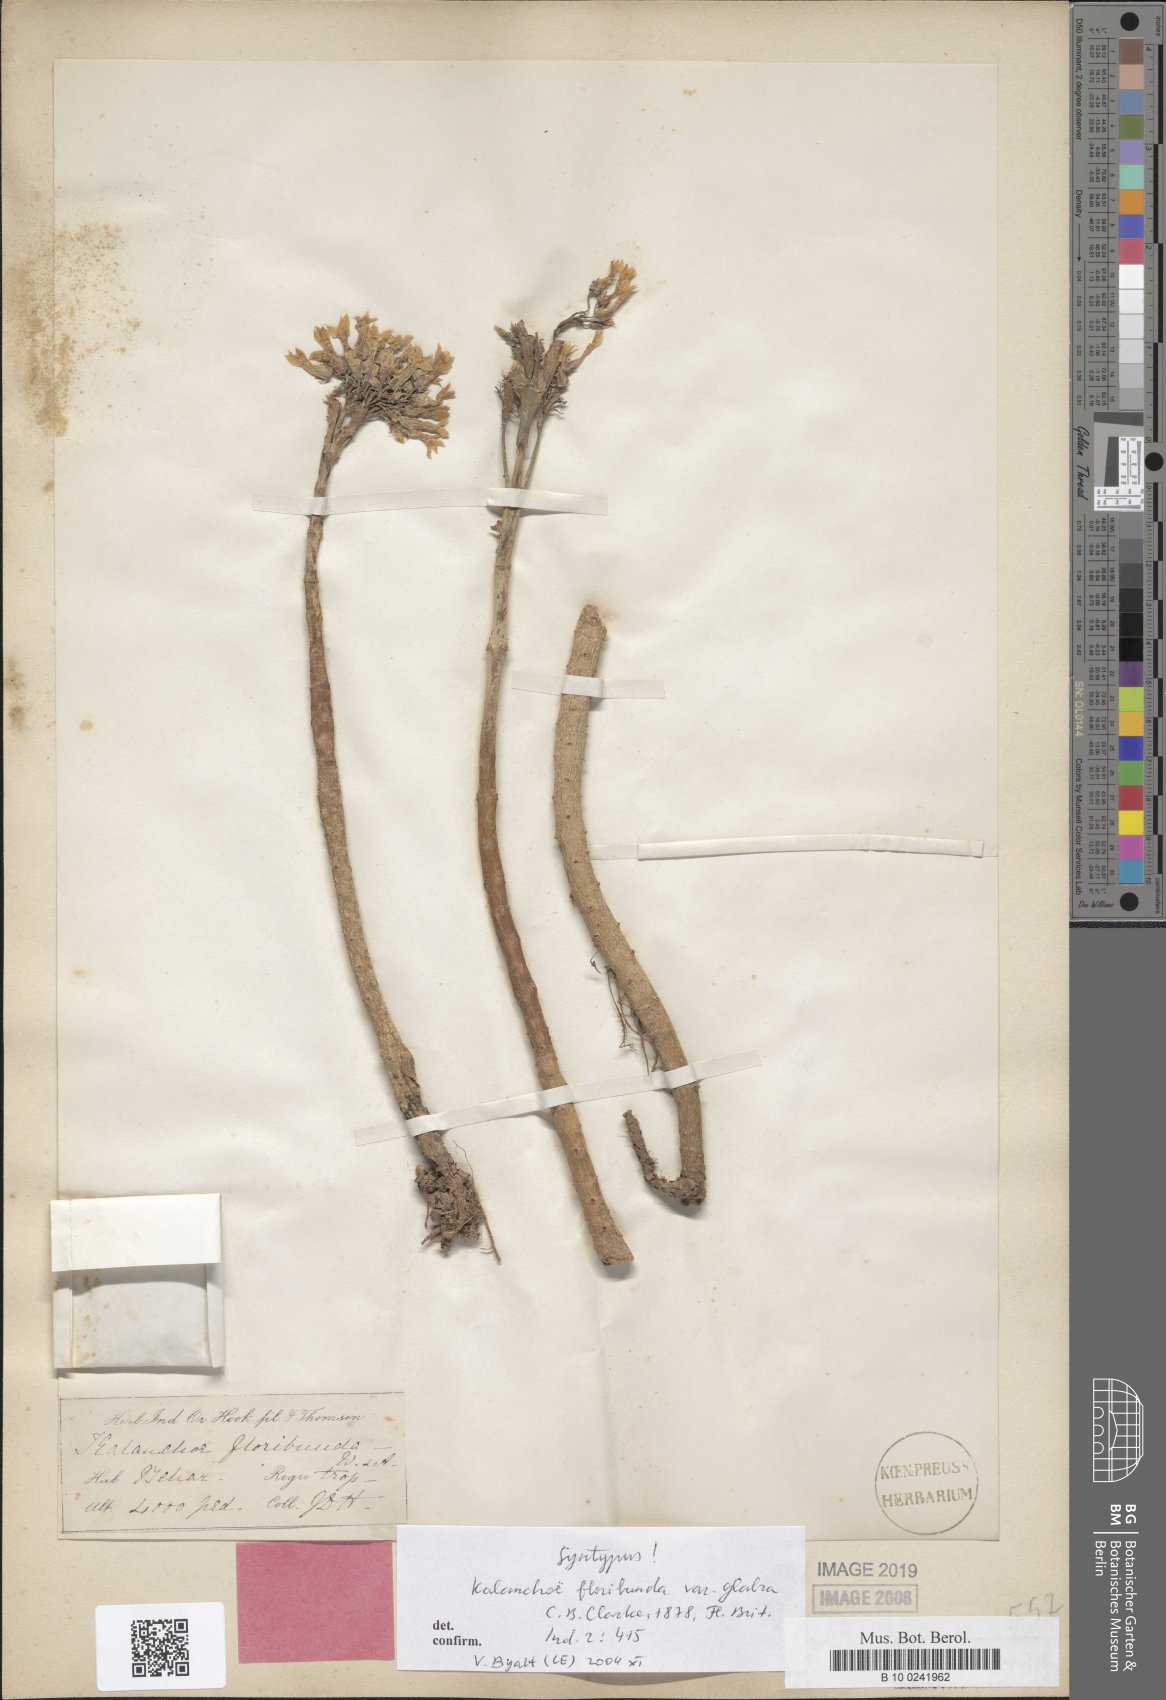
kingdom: Plantae
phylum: Tracheophyta
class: Magnoliopsida
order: Saxifragales
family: Crassulaceae
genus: Kalanchoe
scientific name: Kalanchoe floribunda
